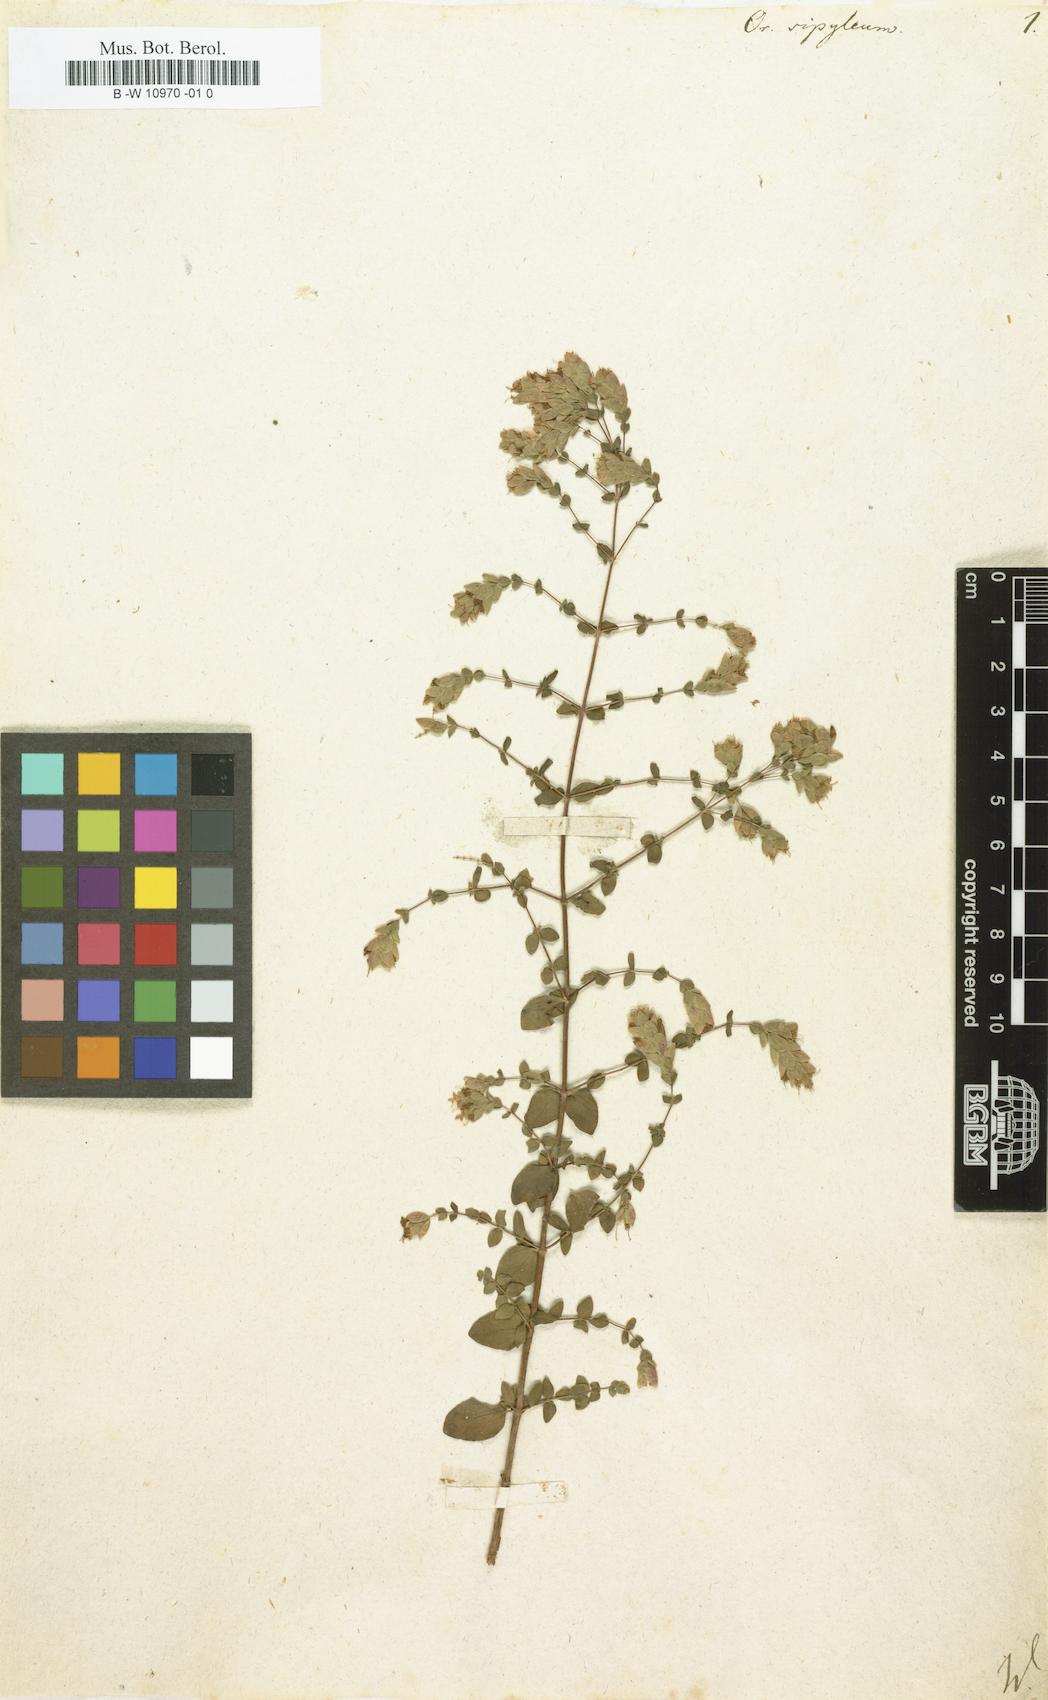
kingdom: Plantae
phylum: Tracheophyta
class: Magnoliopsida
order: Lamiales
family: Lamiaceae
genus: Origanum
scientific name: Origanum sipyleum
